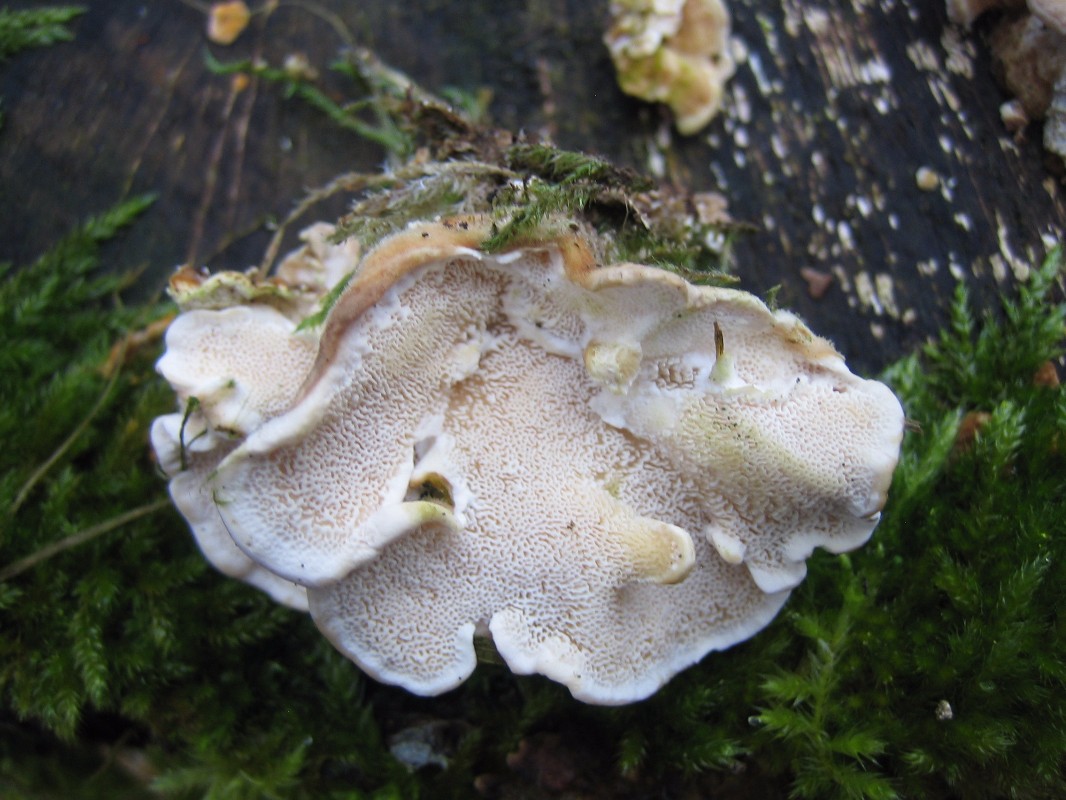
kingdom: Fungi
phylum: Basidiomycota
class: Agaricomycetes
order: Polyporales
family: Polyporaceae
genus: Trametes
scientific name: Trametes
